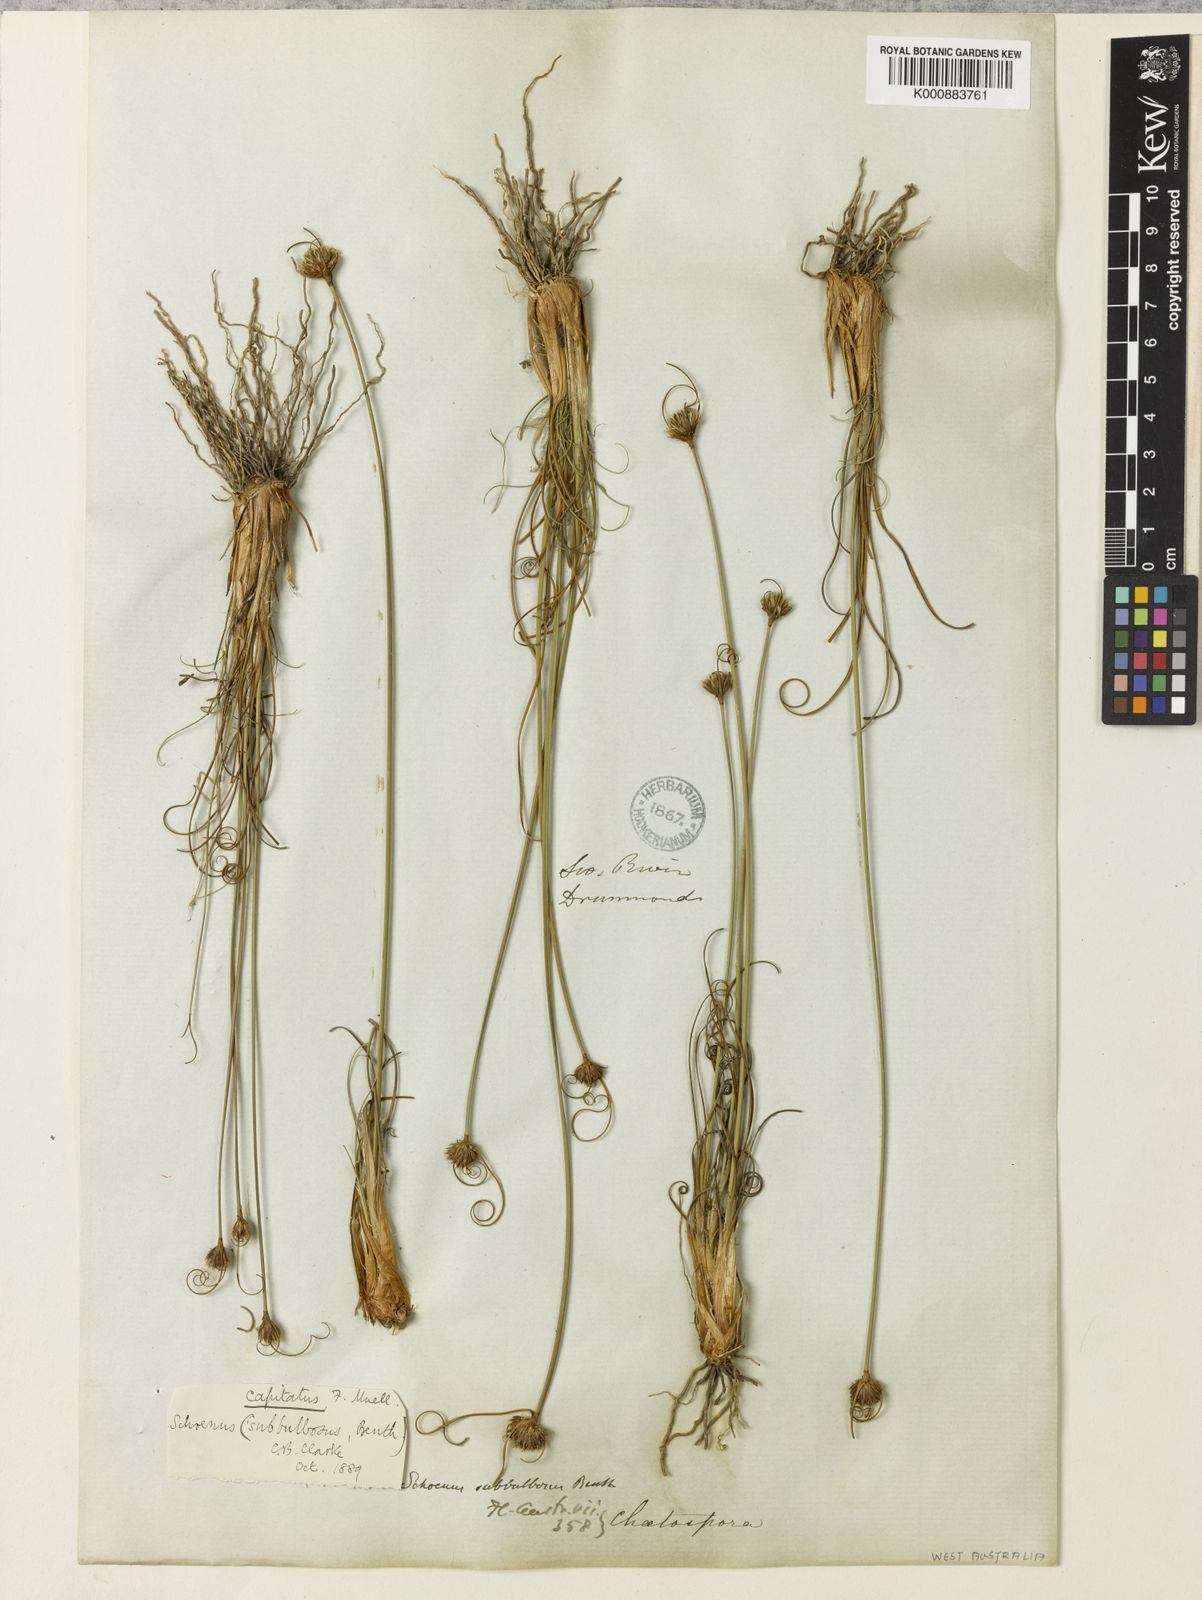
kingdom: Plantae
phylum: Tracheophyta
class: Liliopsida
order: Poales
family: Cyperaceae
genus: Schoenus
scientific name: Schoenus subbulbosus
